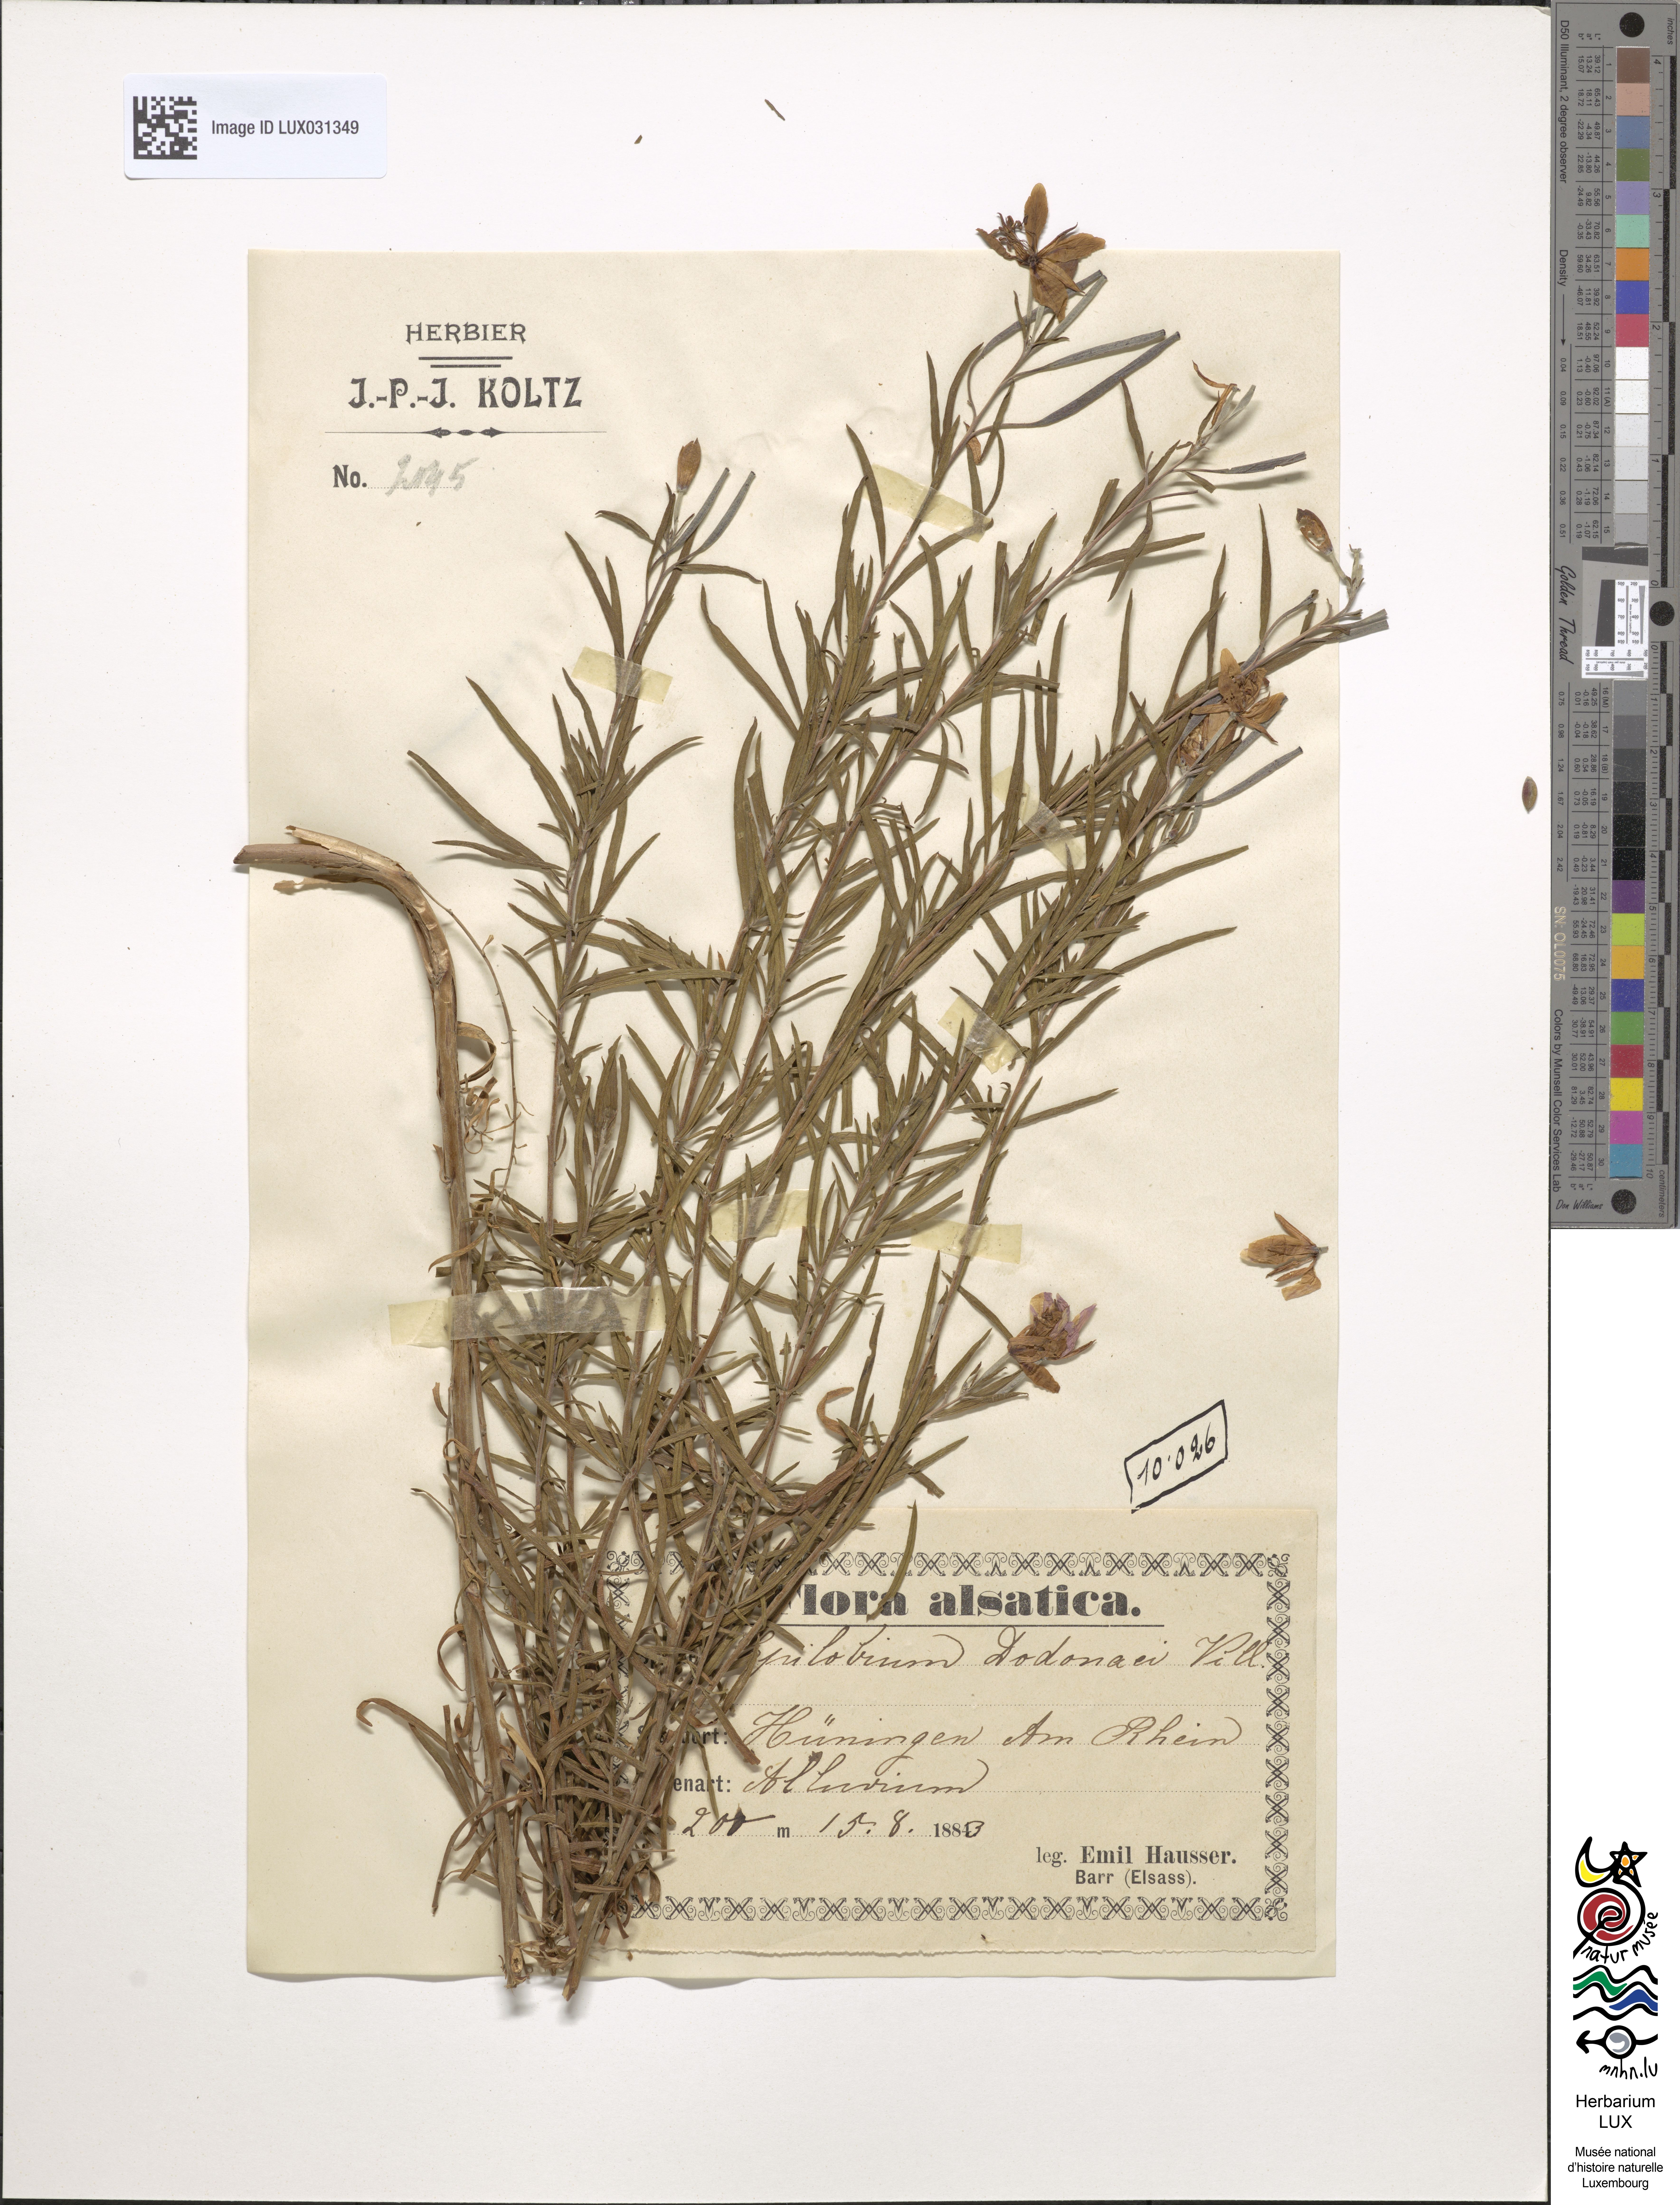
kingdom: Plantae
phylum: Tracheophyta
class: Magnoliopsida
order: Myrtales
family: Onagraceae
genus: Chamaenerion
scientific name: Chamaenerion dodonaei
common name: Rosemary-leaved willowherb
